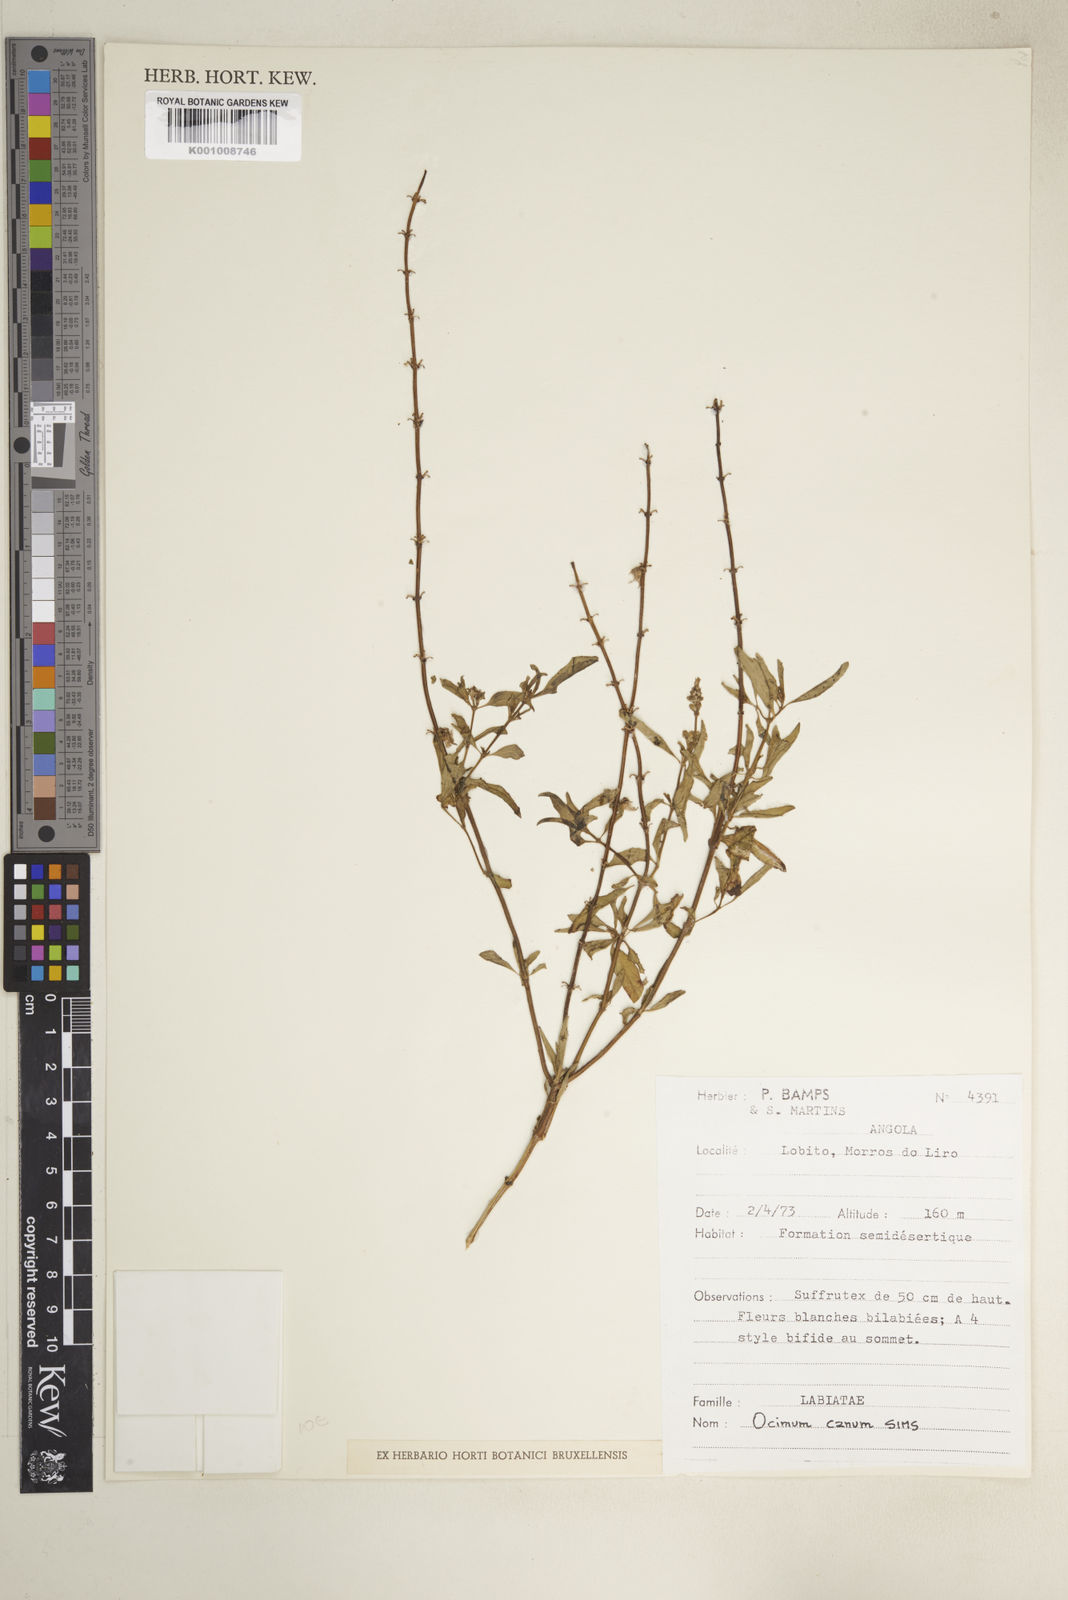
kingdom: Plantae
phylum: Tracheophyta
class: Magnoliopsida
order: Lamiales
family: Lamiaceae
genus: Ocimum
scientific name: Ocimum americanum
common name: American basil
